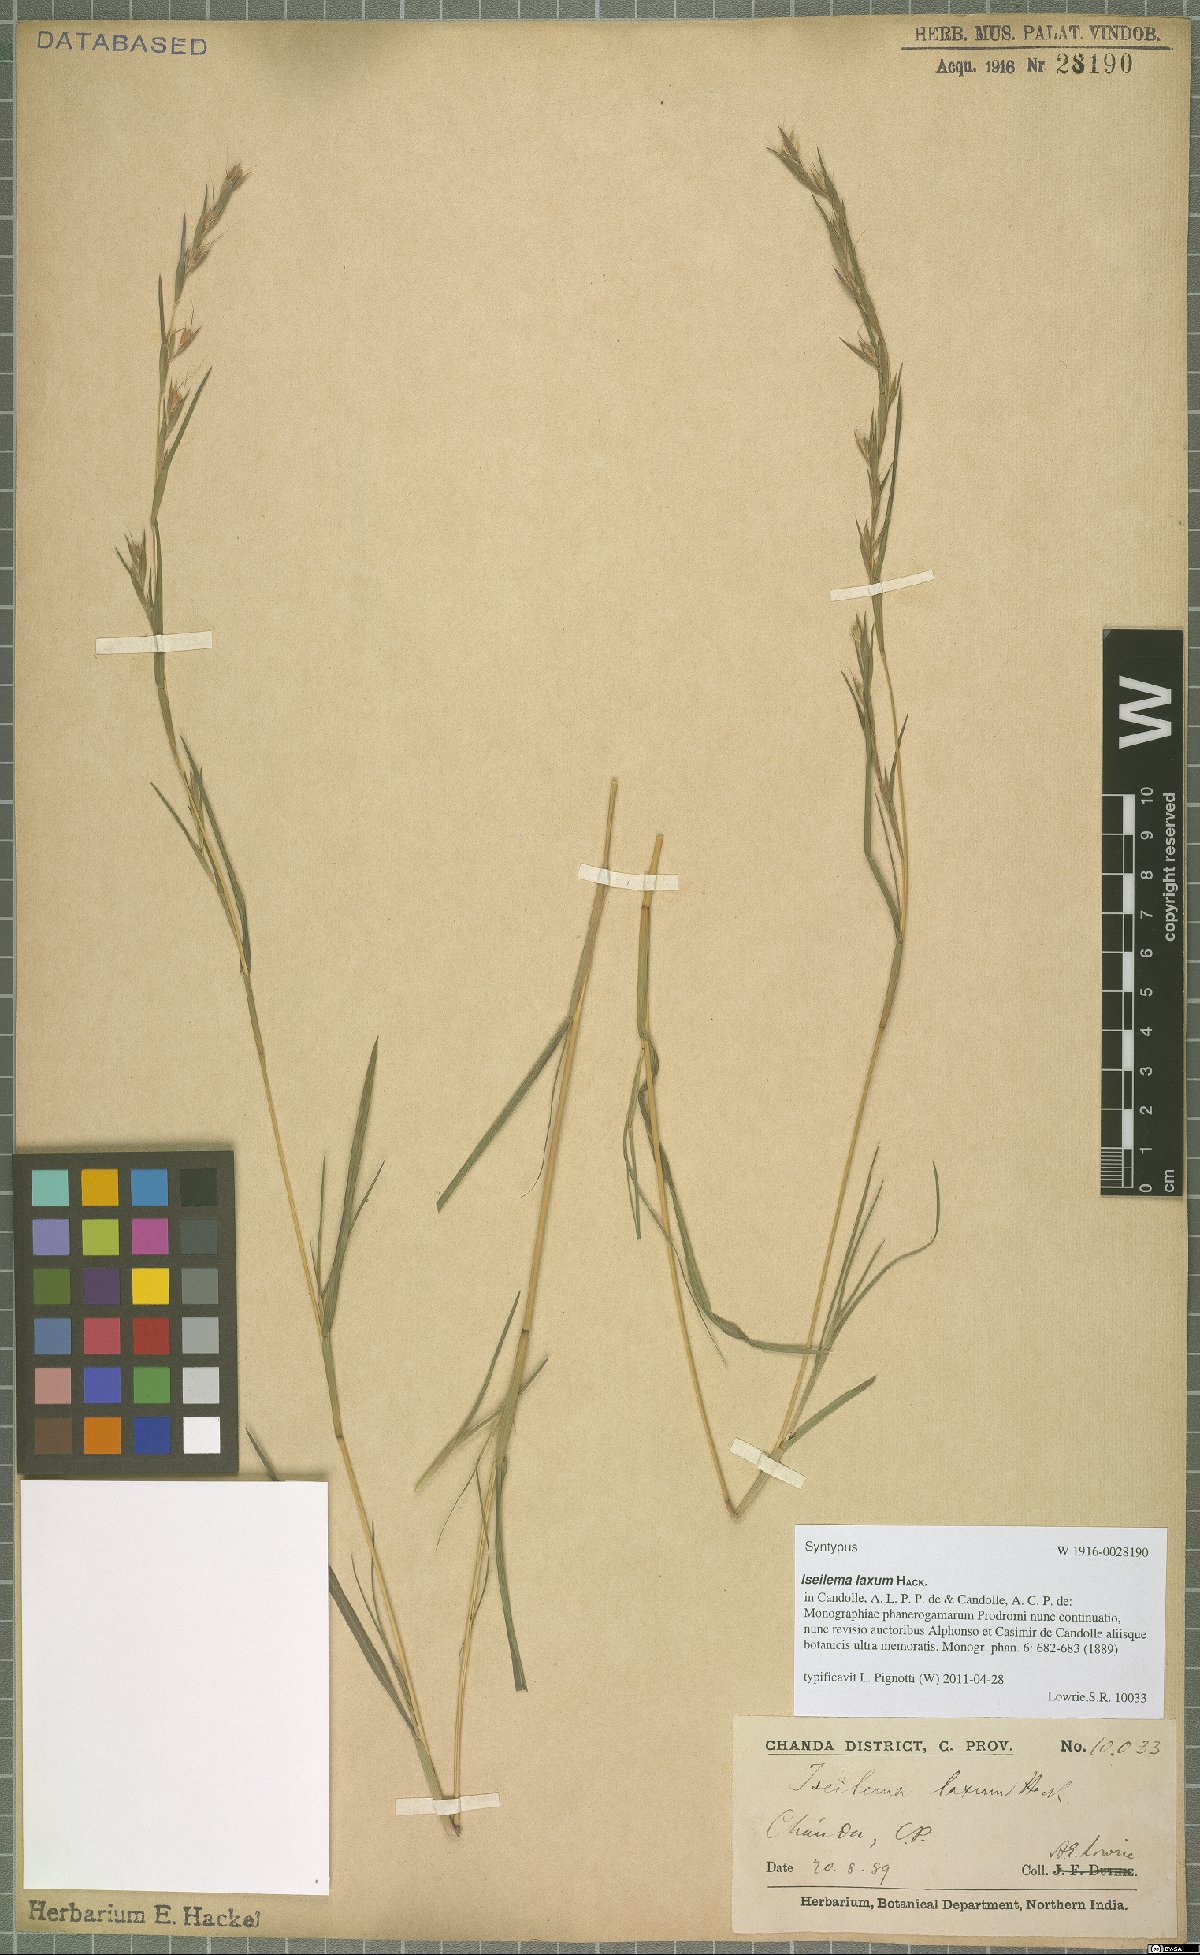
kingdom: Plantae
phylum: Tracheophyta
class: Liliopsida
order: Poales
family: Poaceae
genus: Iseilema
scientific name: Iseilema prostratum
